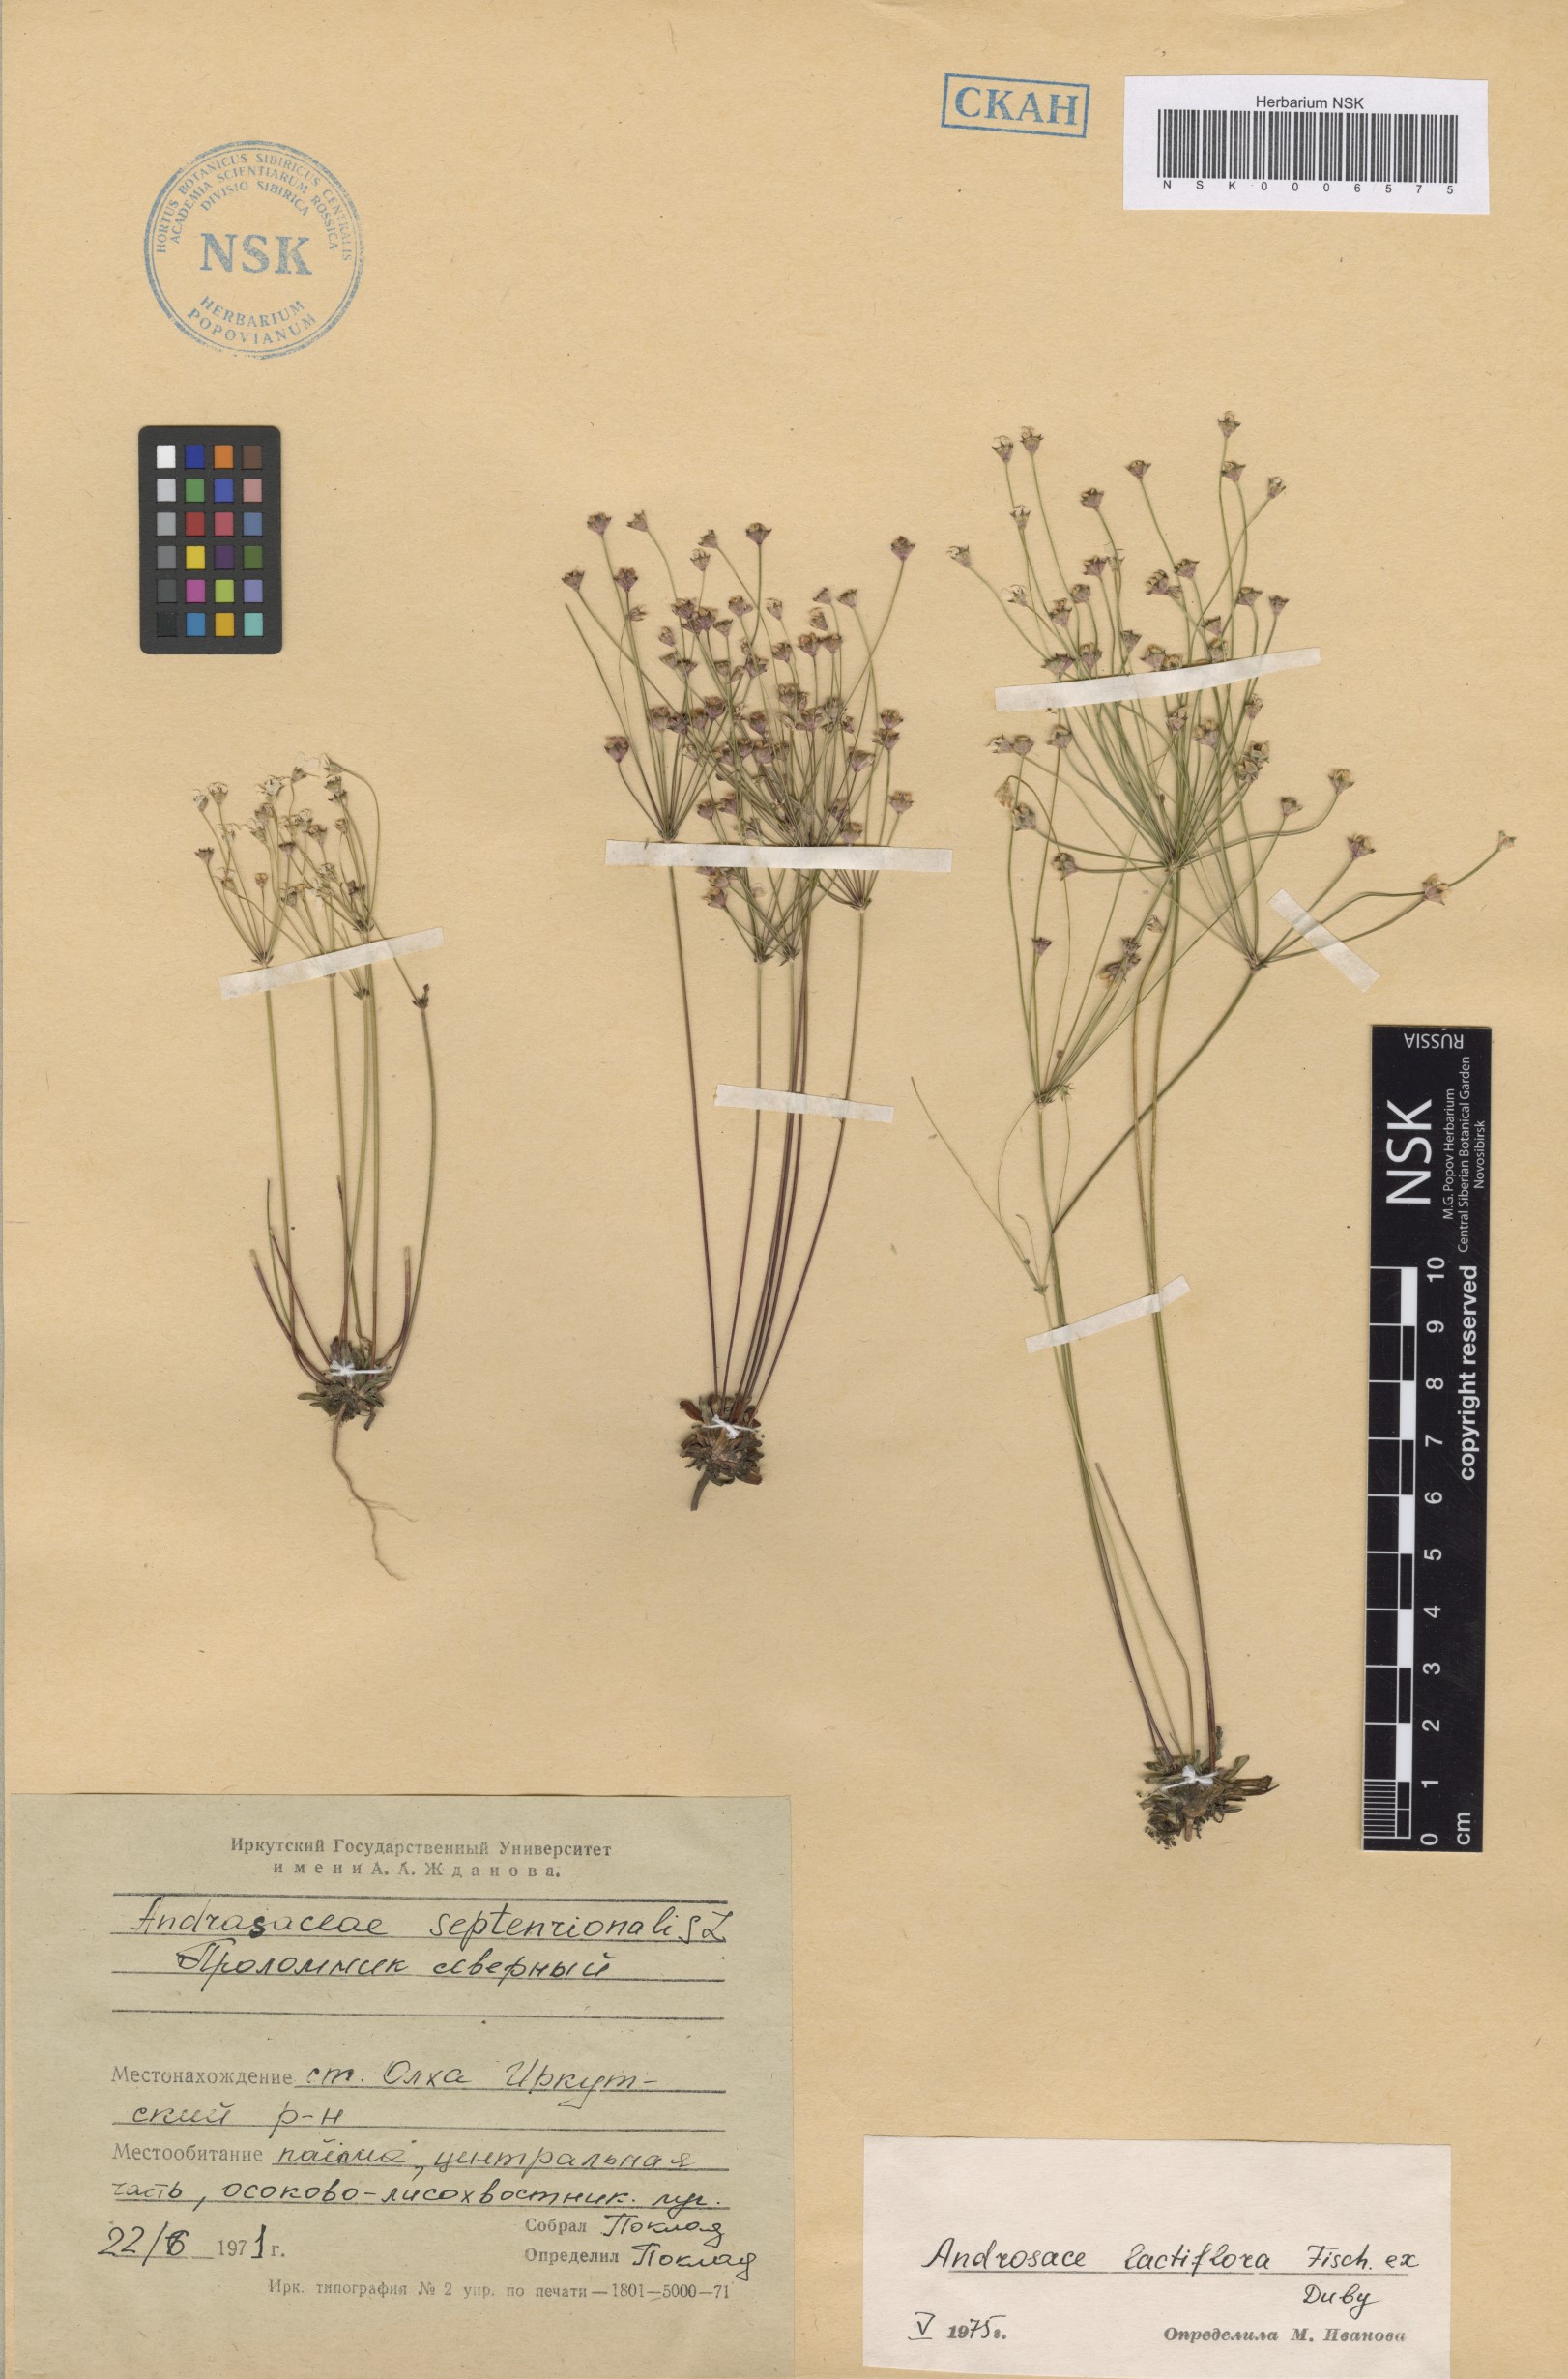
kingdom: Plantae
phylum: Tracheophyta
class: Magnoliopsida
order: Ericales
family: Primulaceae
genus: Androsace
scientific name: Androsace lactiflora
